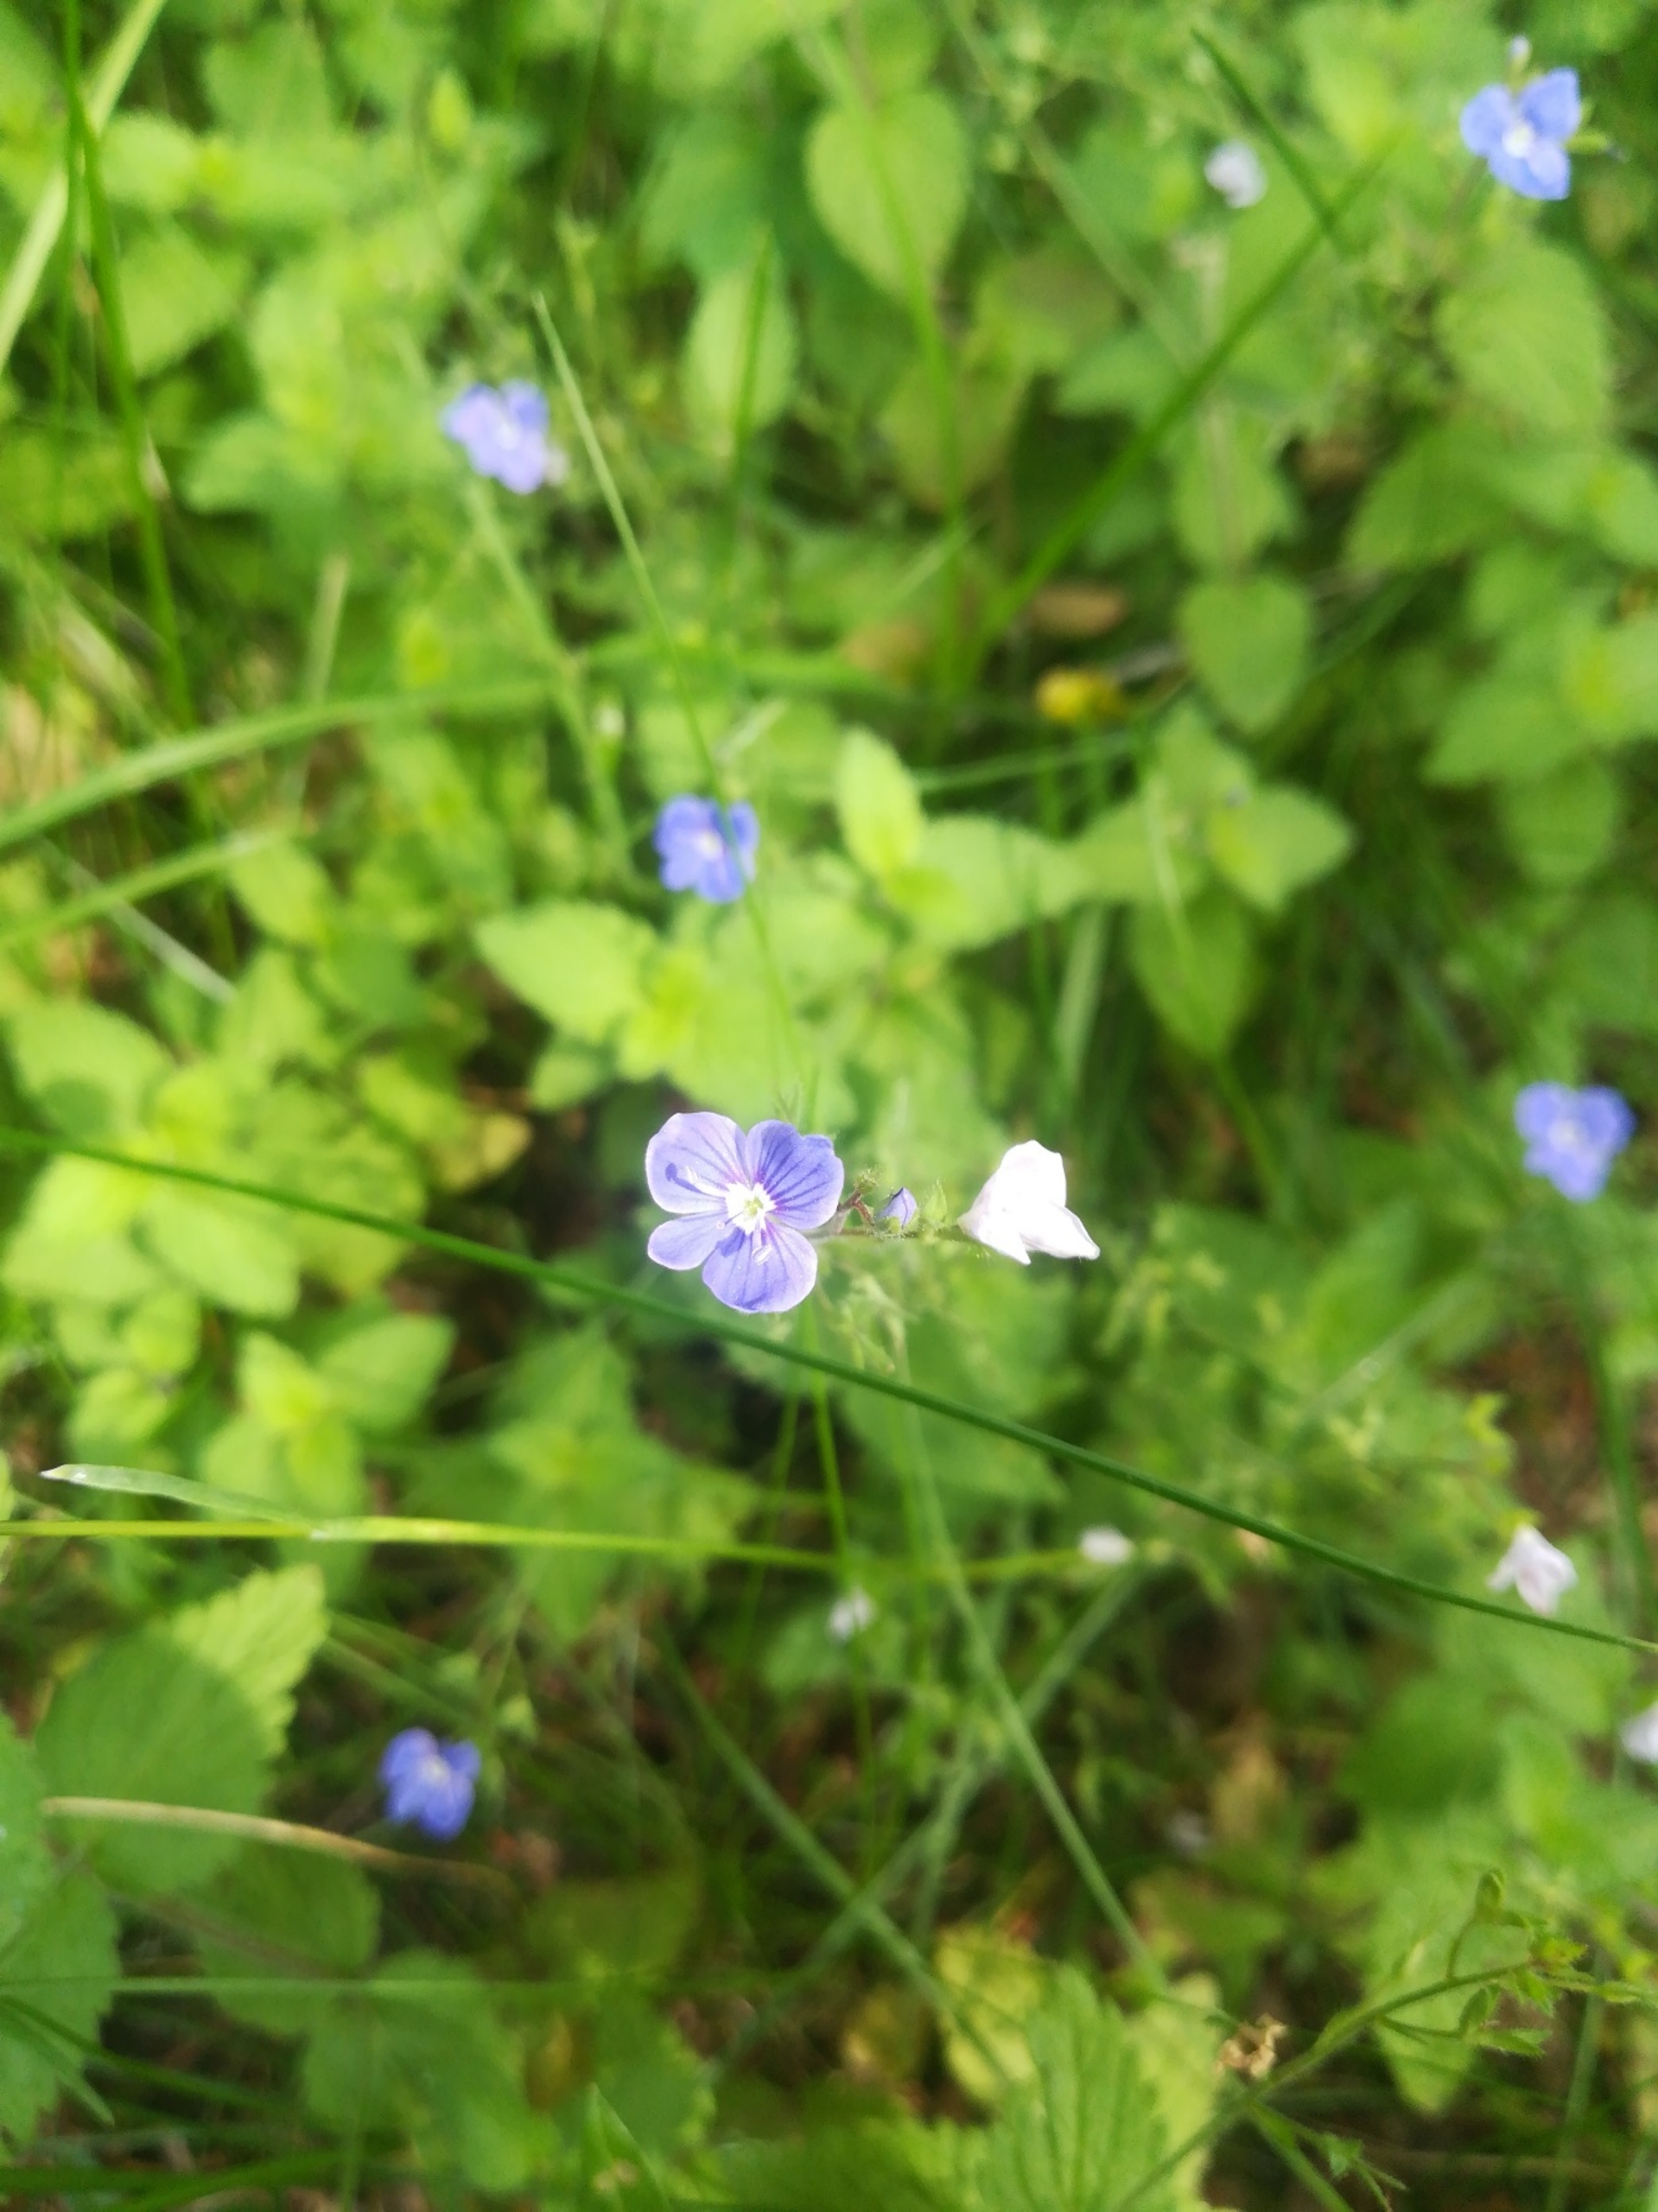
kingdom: Plantae
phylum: Tracheophyta
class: Magnoliopsida
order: Lamiales
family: Plantaginaceae
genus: Veronica
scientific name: Veronica chamaedrys
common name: Tveskægget ærenpris
